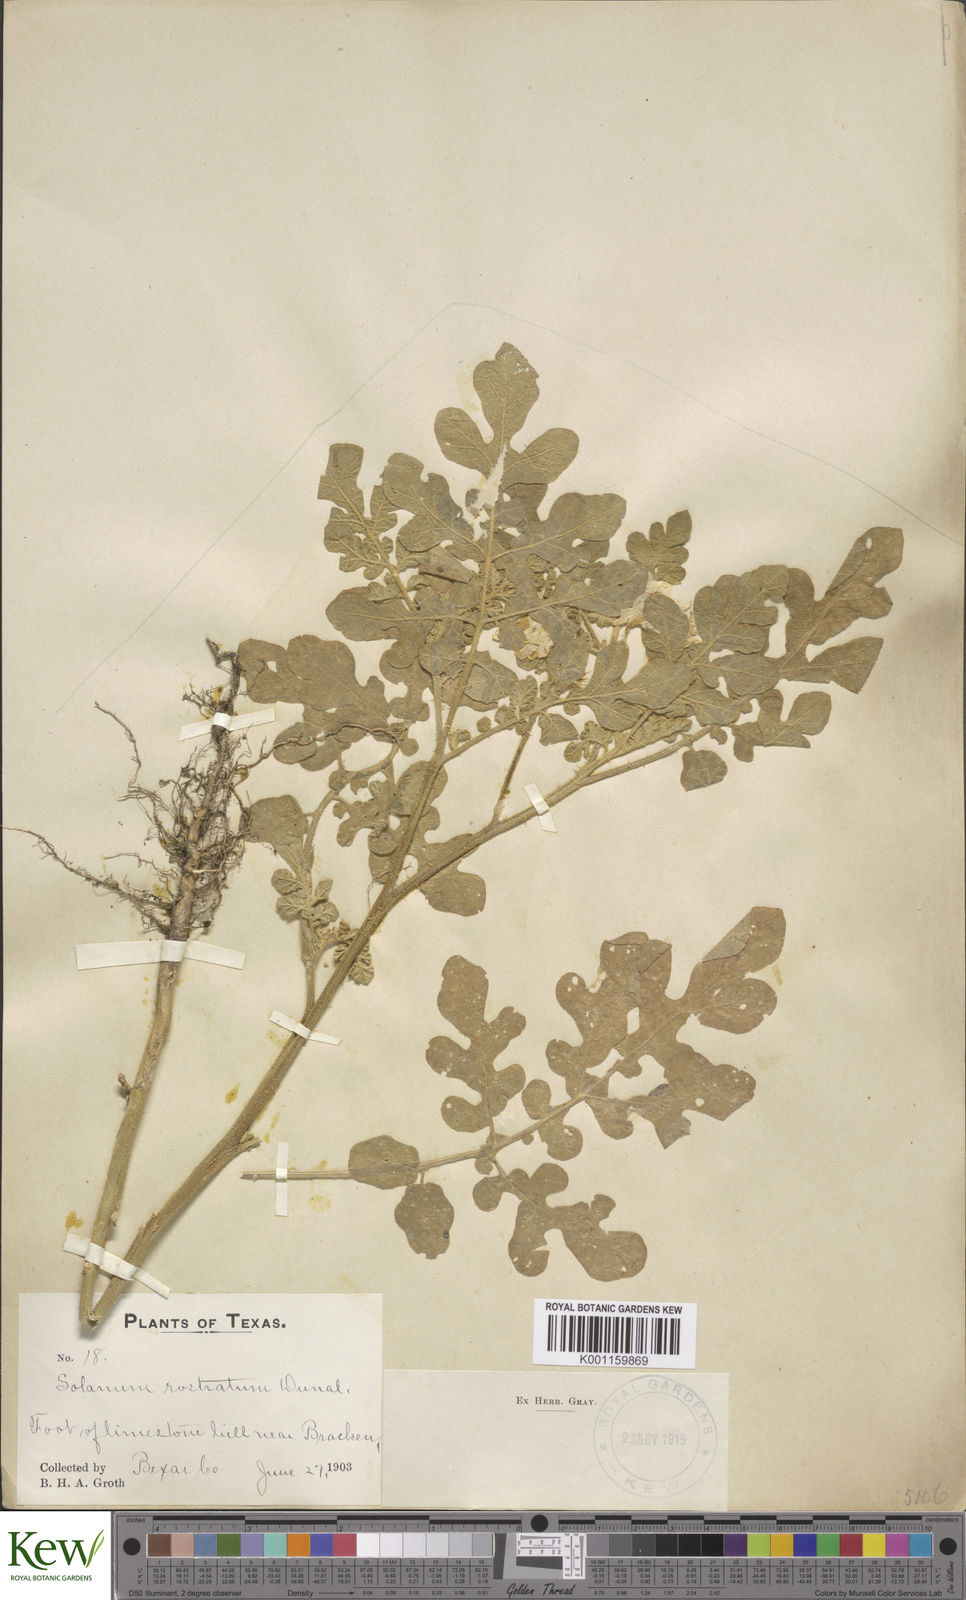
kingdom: Plantae
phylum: Tracheophyta
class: Magnoliopsida
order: Solanales
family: Solanaceae
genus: Solanum
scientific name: Solanum angustifolium
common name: Buffalobur nightshade
